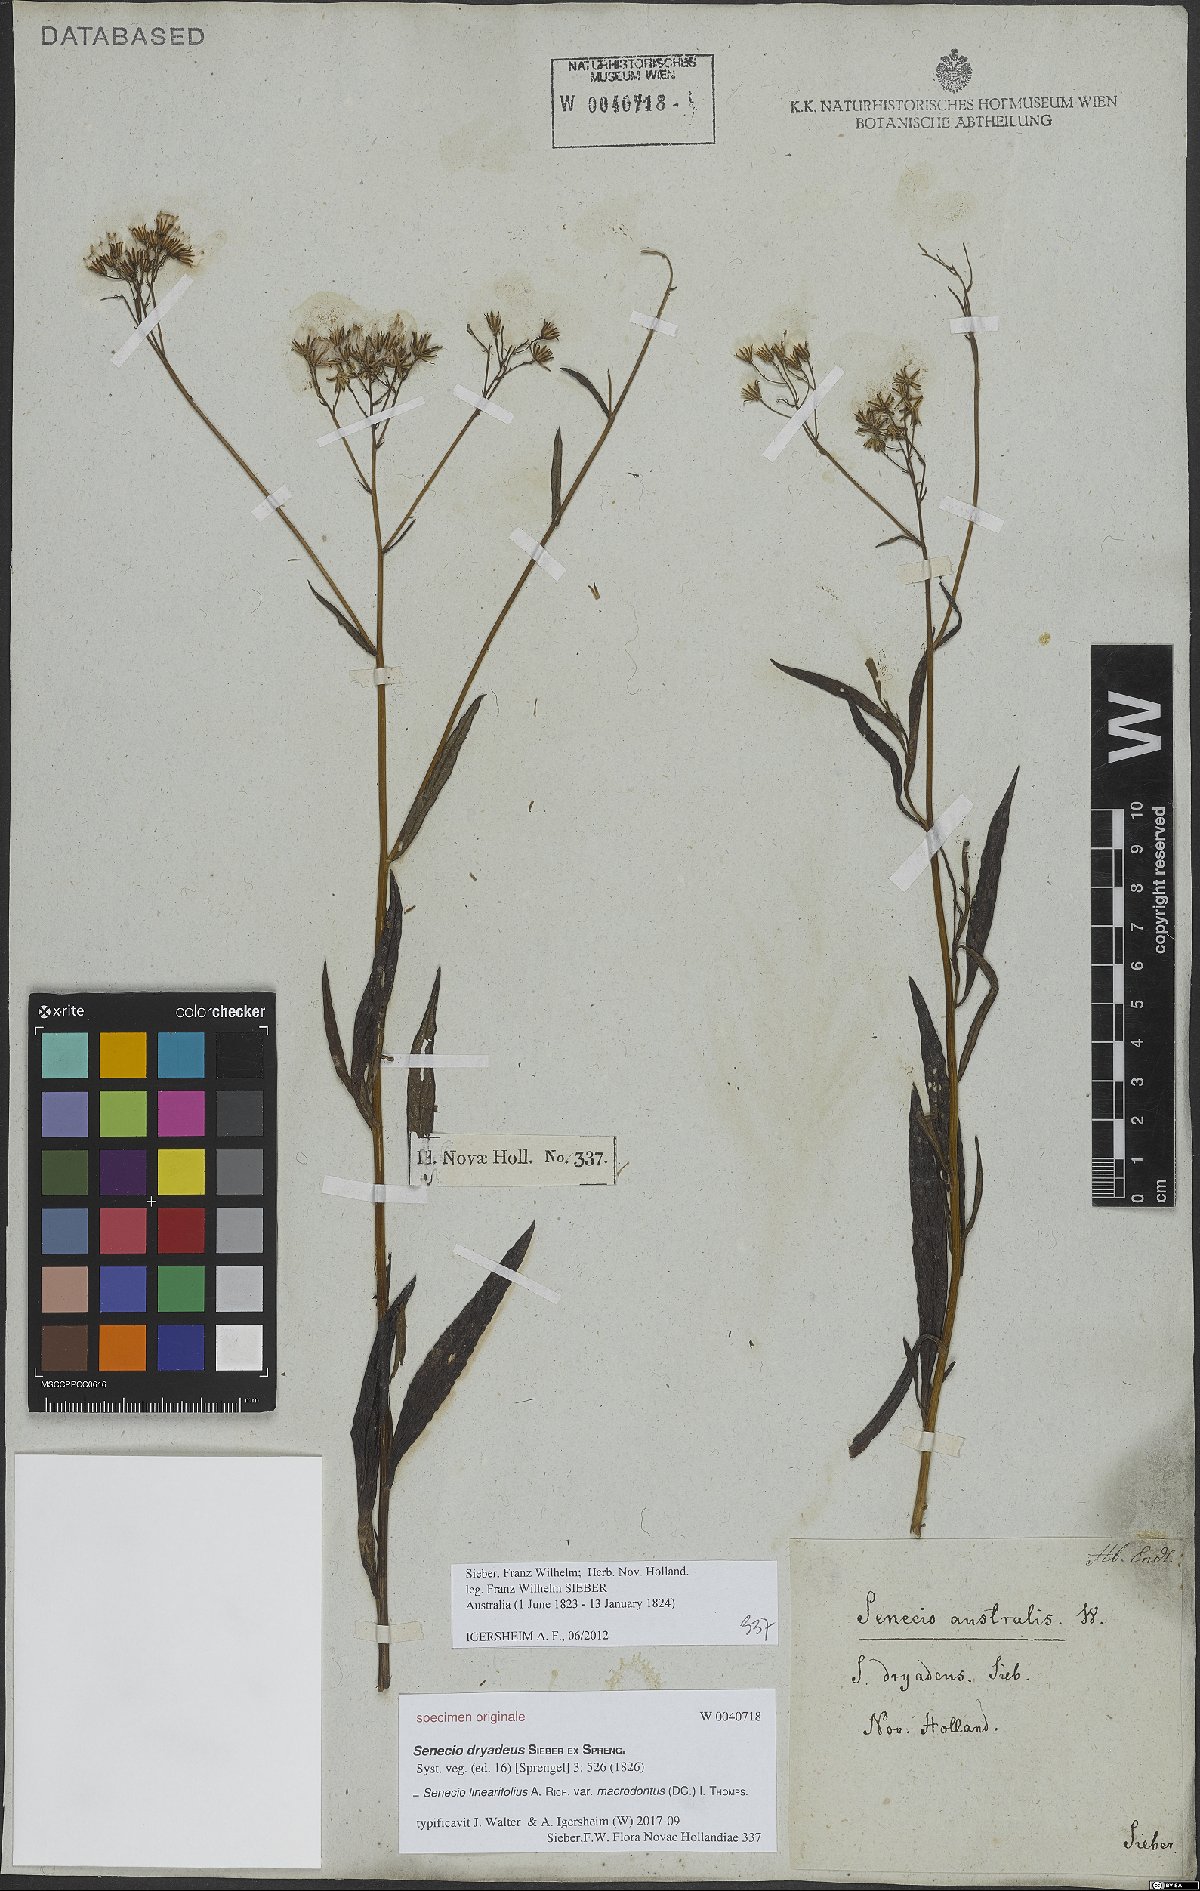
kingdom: Plantae
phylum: Tracheophyta
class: Magnoliopsida
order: Asterales
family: Asteraceae
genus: Senecio
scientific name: Senecio linearifolius
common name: Fireweed groundsel
